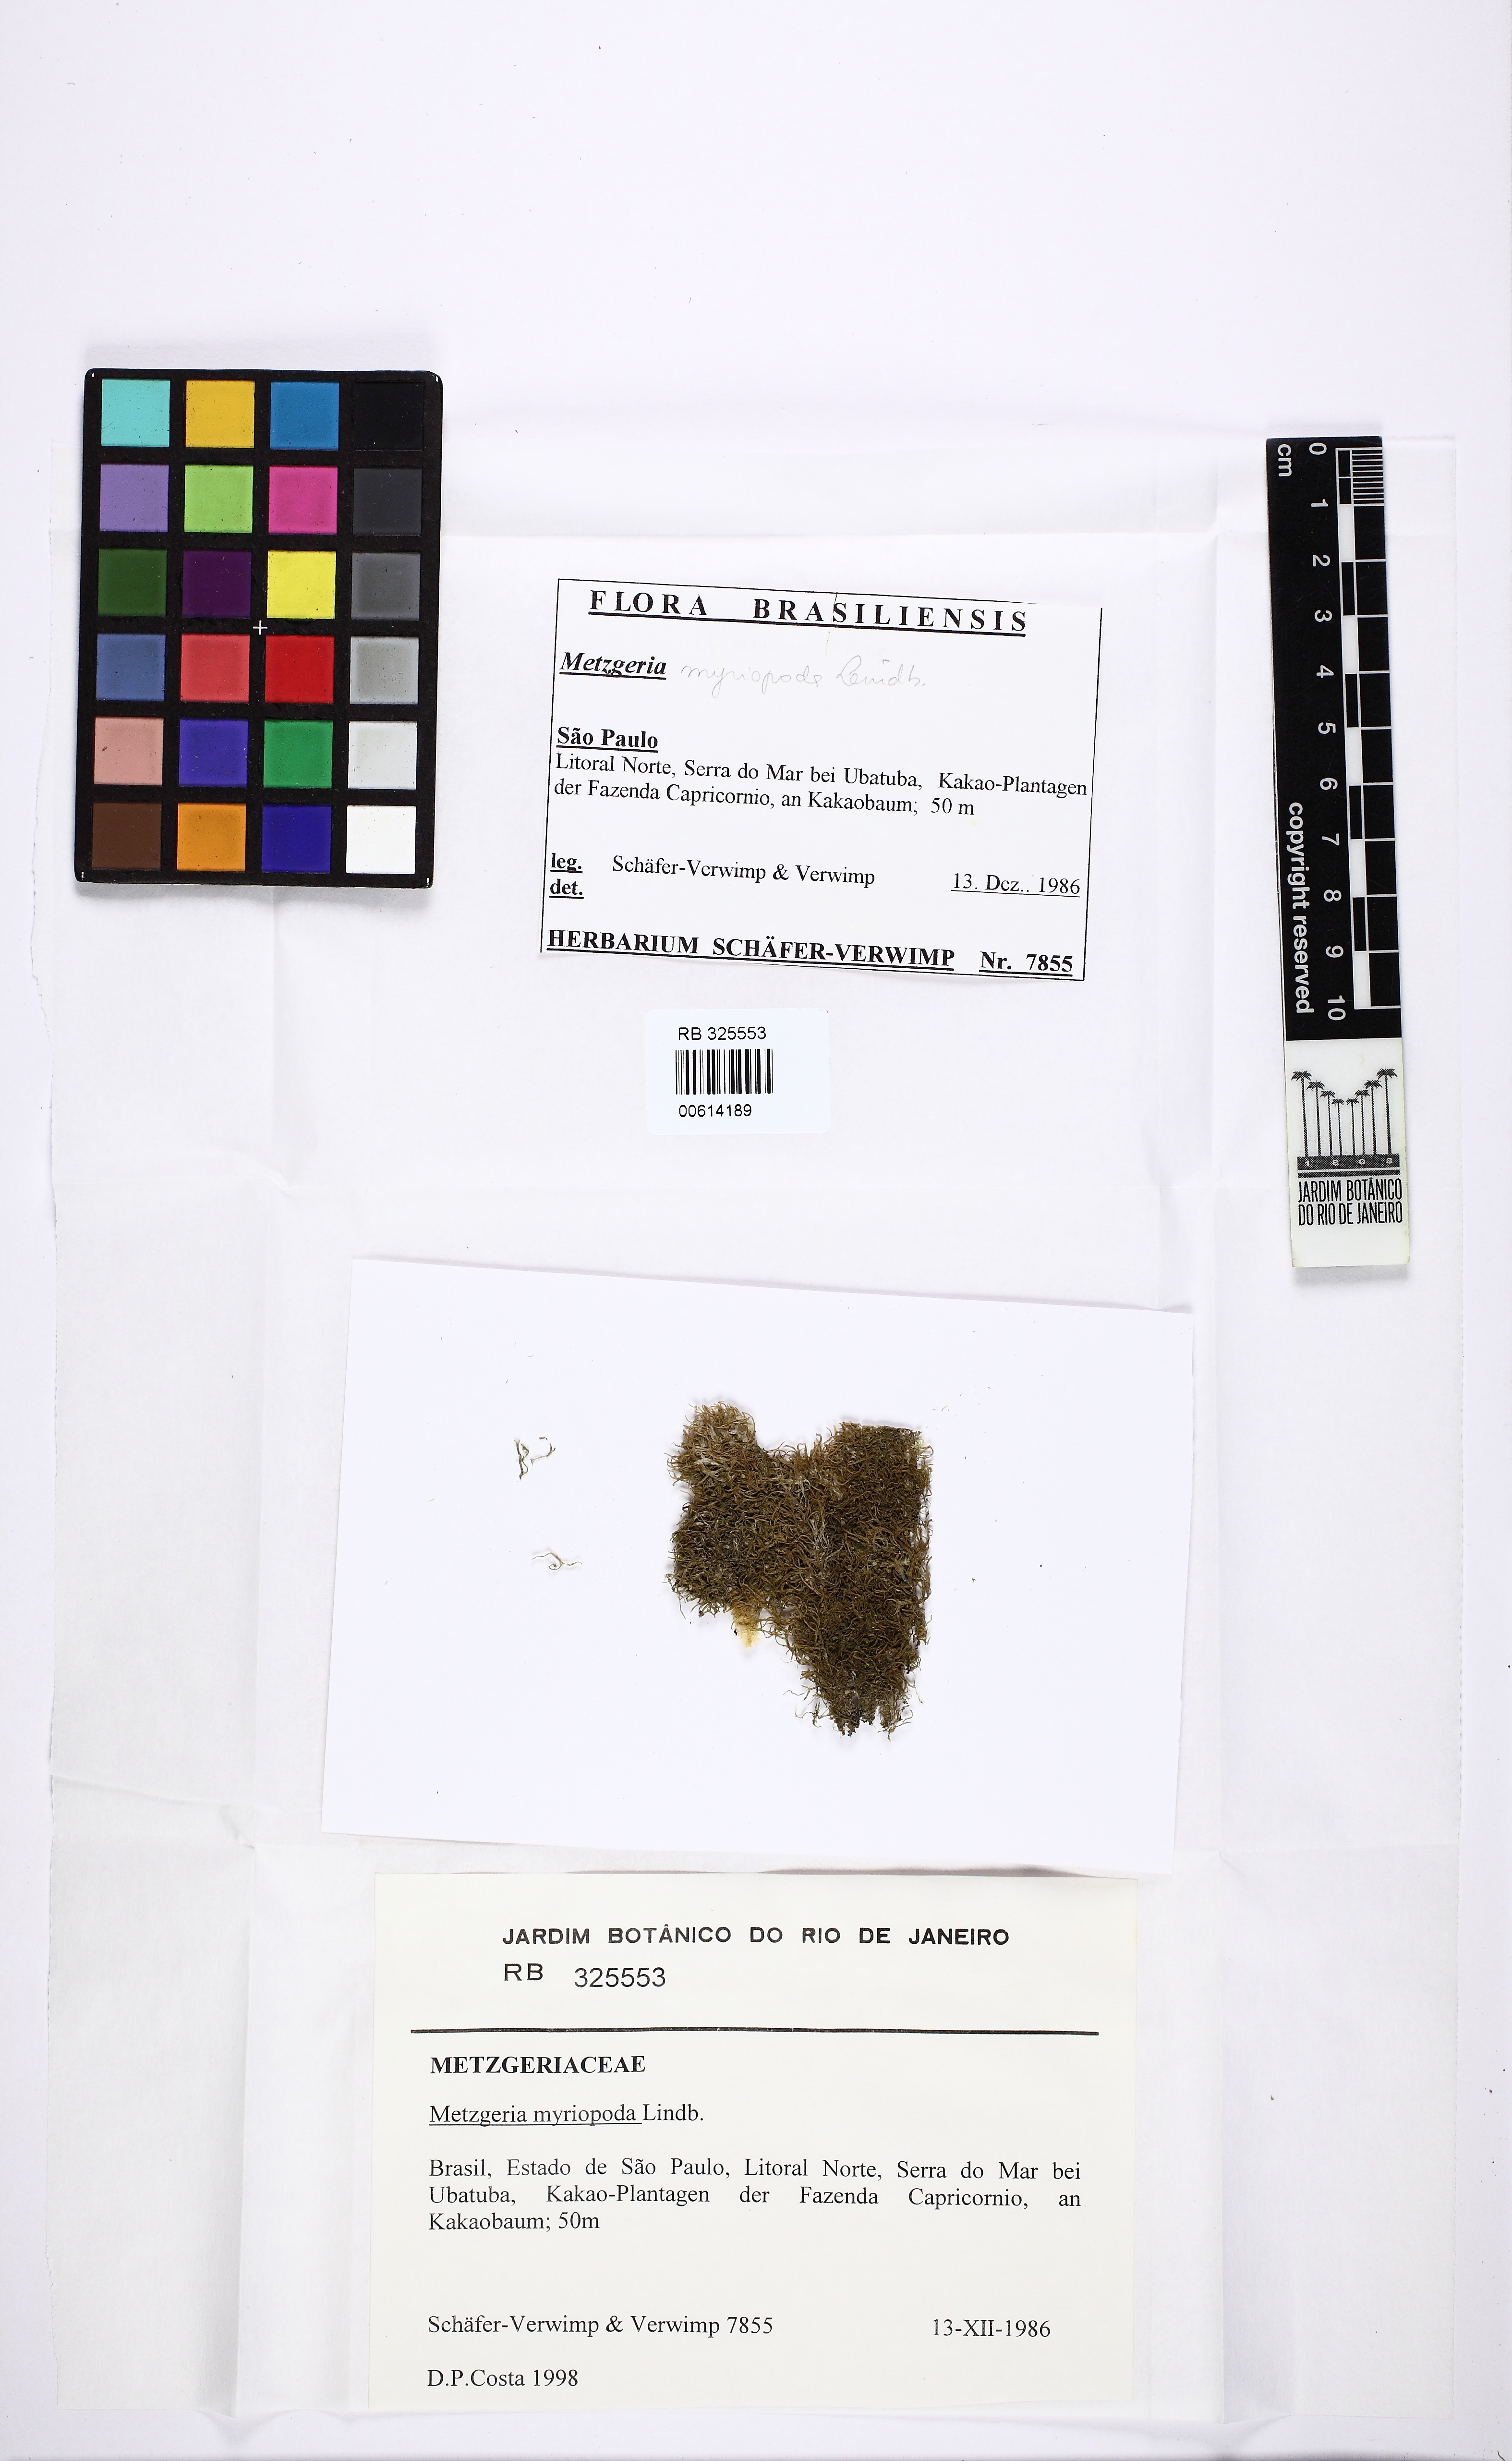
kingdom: Plantae
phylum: Marchantiophyta
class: Jungermanniopsida
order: Metzgeriales
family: Metzgeriaceae
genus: Metzgeria
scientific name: Metzgeria myriopoda
